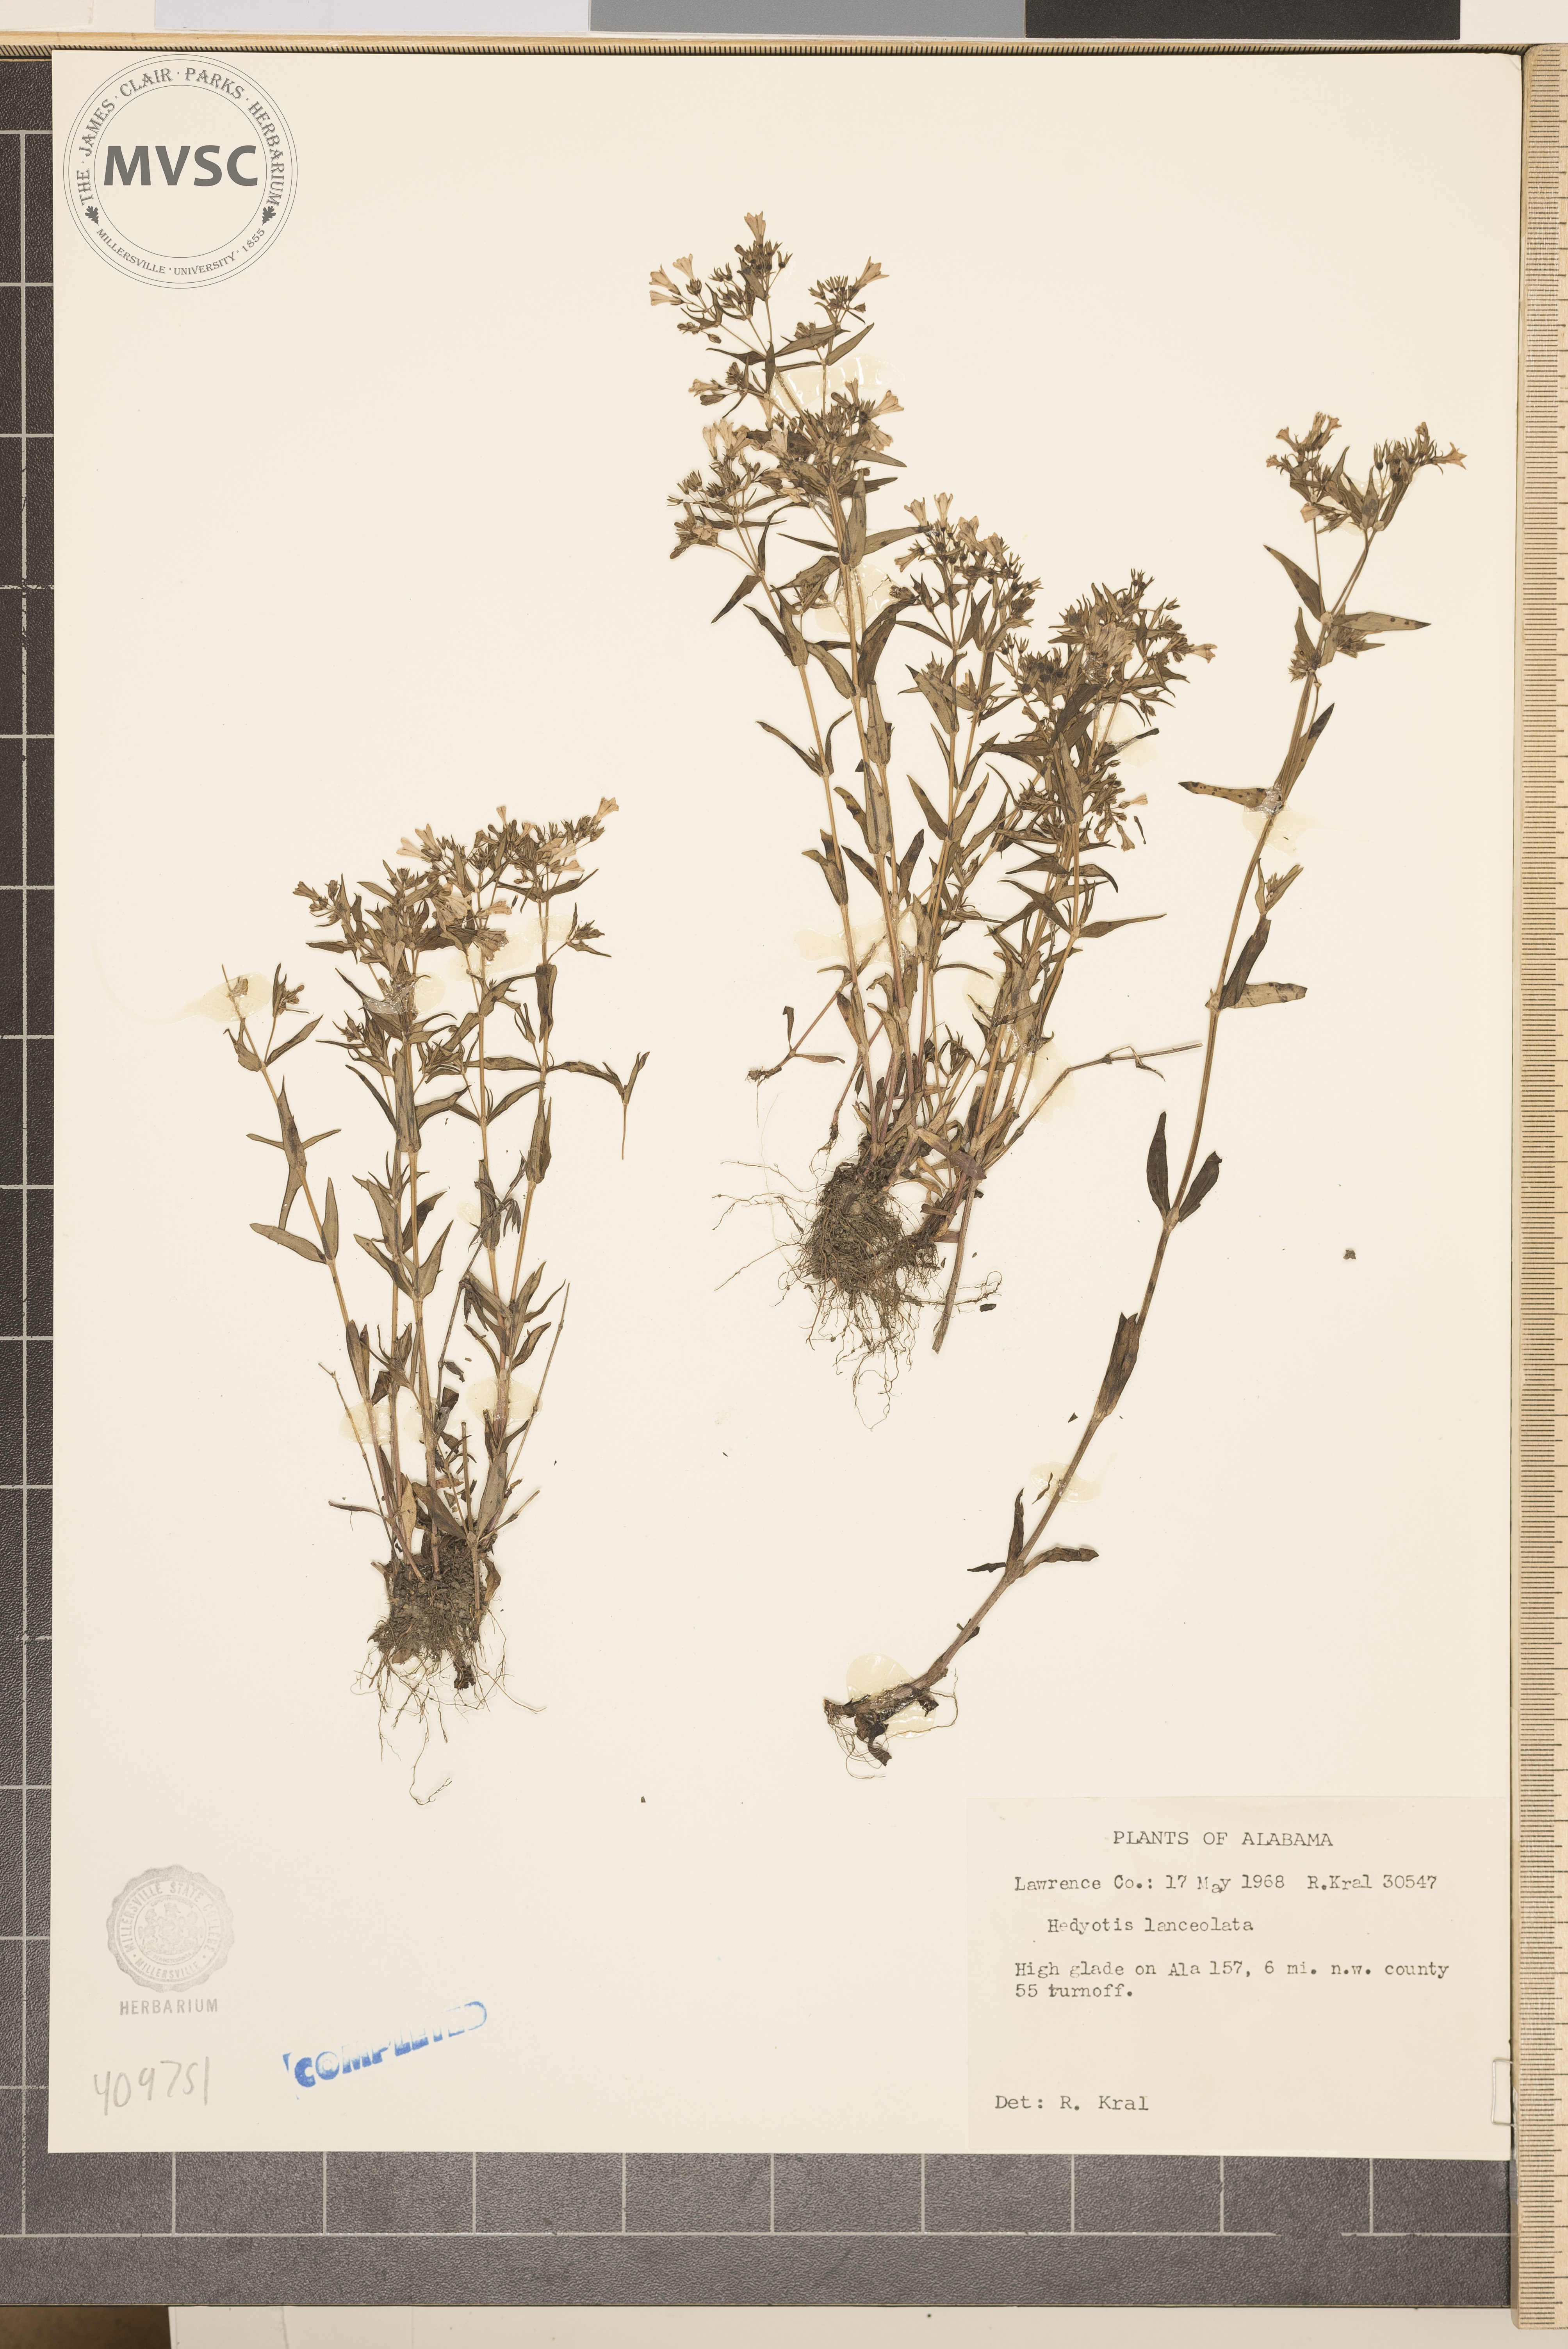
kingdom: Plantae
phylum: Tracheophyta
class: Magnoliopsida
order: Gentianales
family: Rubiaceae
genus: Hedyotis
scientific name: Hedyotis
